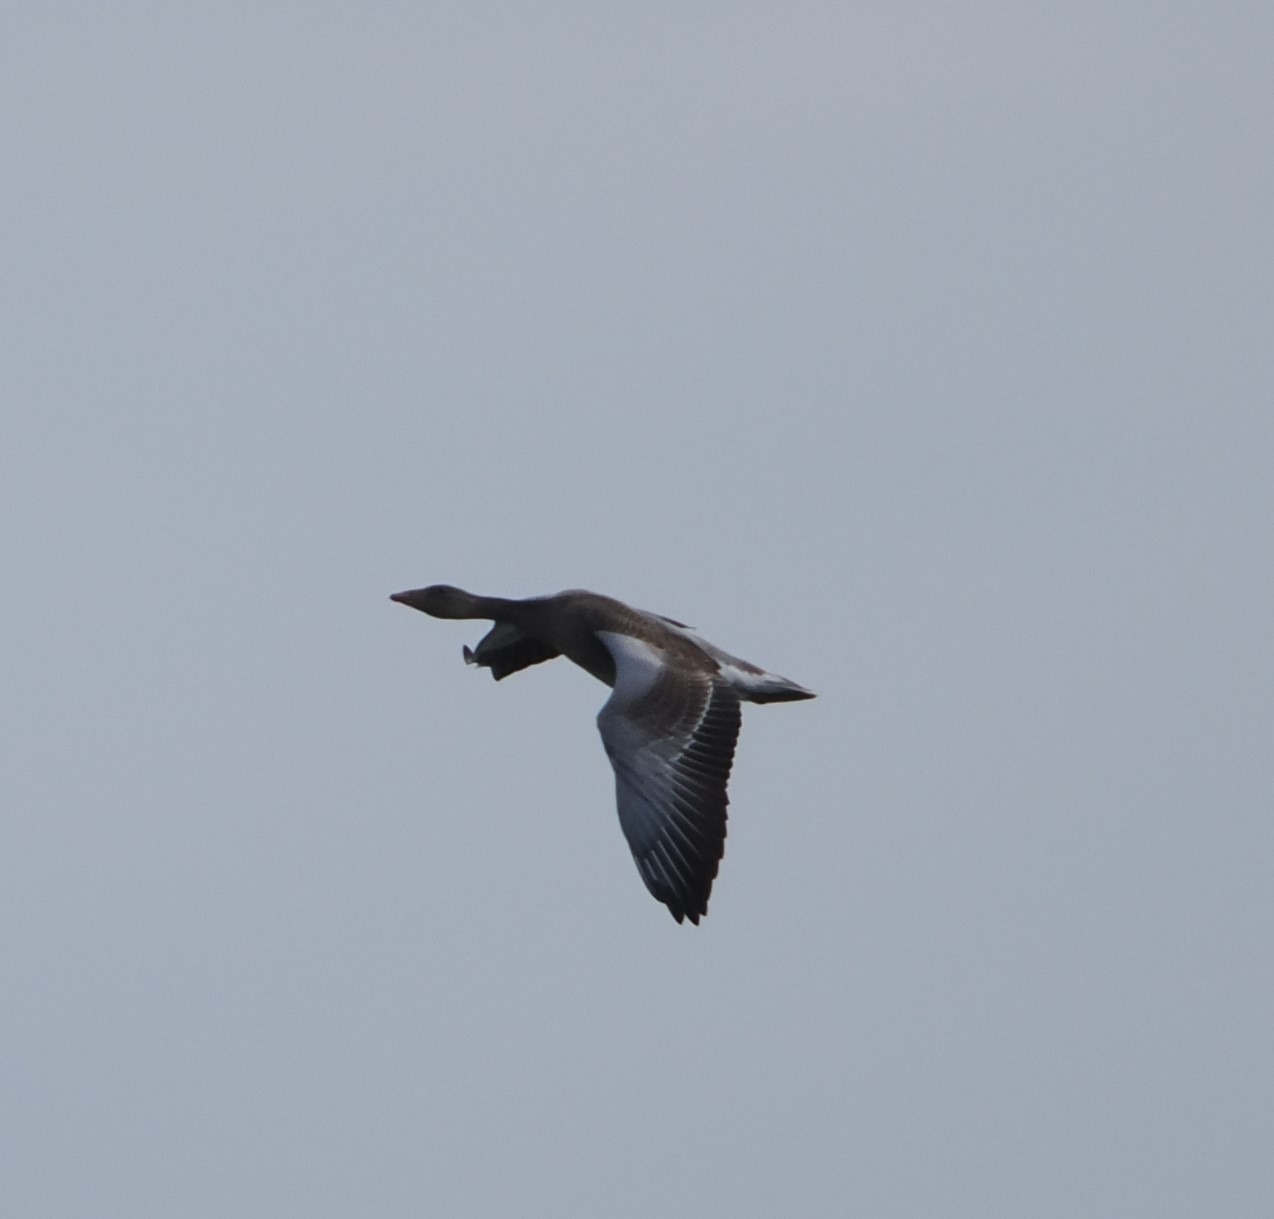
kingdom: Animalia
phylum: Chordata
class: Aves
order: Anseriformes
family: Anatidae
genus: Anser
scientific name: Anser anser
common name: Grågås
